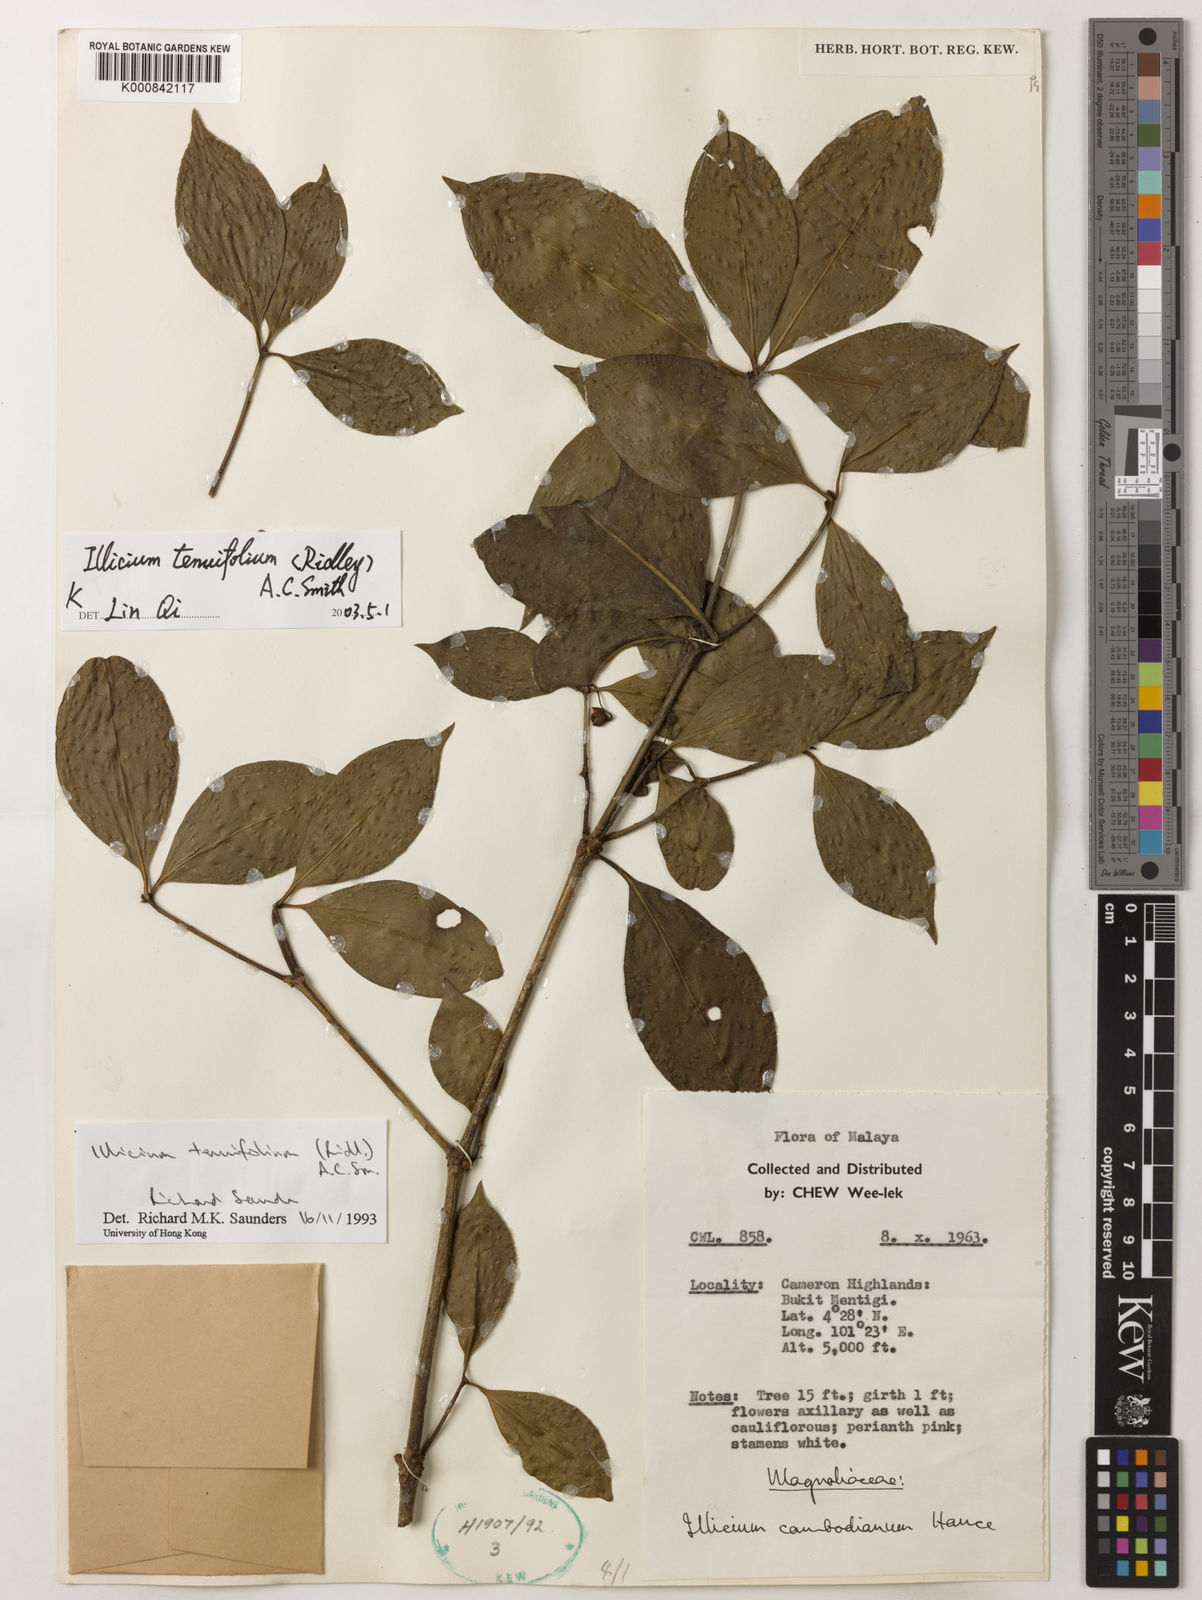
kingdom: Plantae
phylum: Tracheophyta
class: Magnoliopsida
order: Austrobaileyales
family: Schisandraceae
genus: Illicium
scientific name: Illicium tenuifolium
